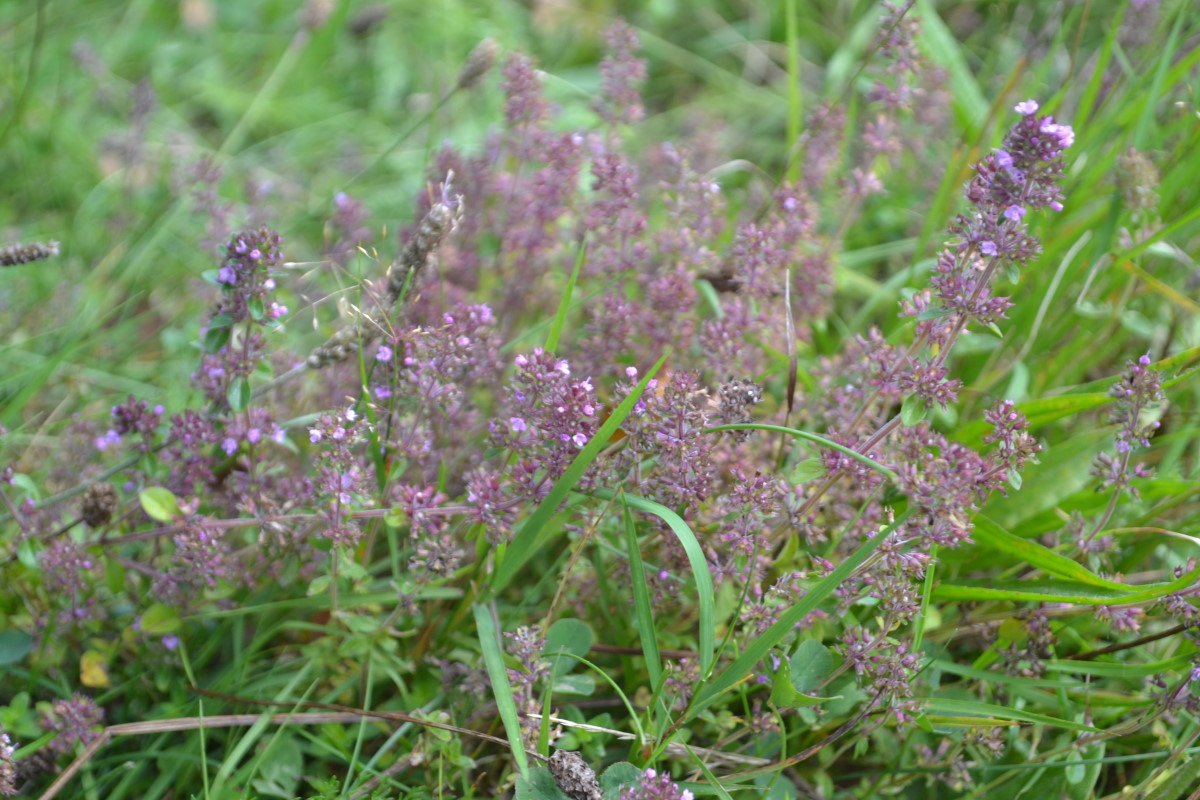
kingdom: Plantae
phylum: Tracheophyta
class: Magnoliopsida
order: Lamiales
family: Lamiaceae
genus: Thymus
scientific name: Thymus pulegioides
